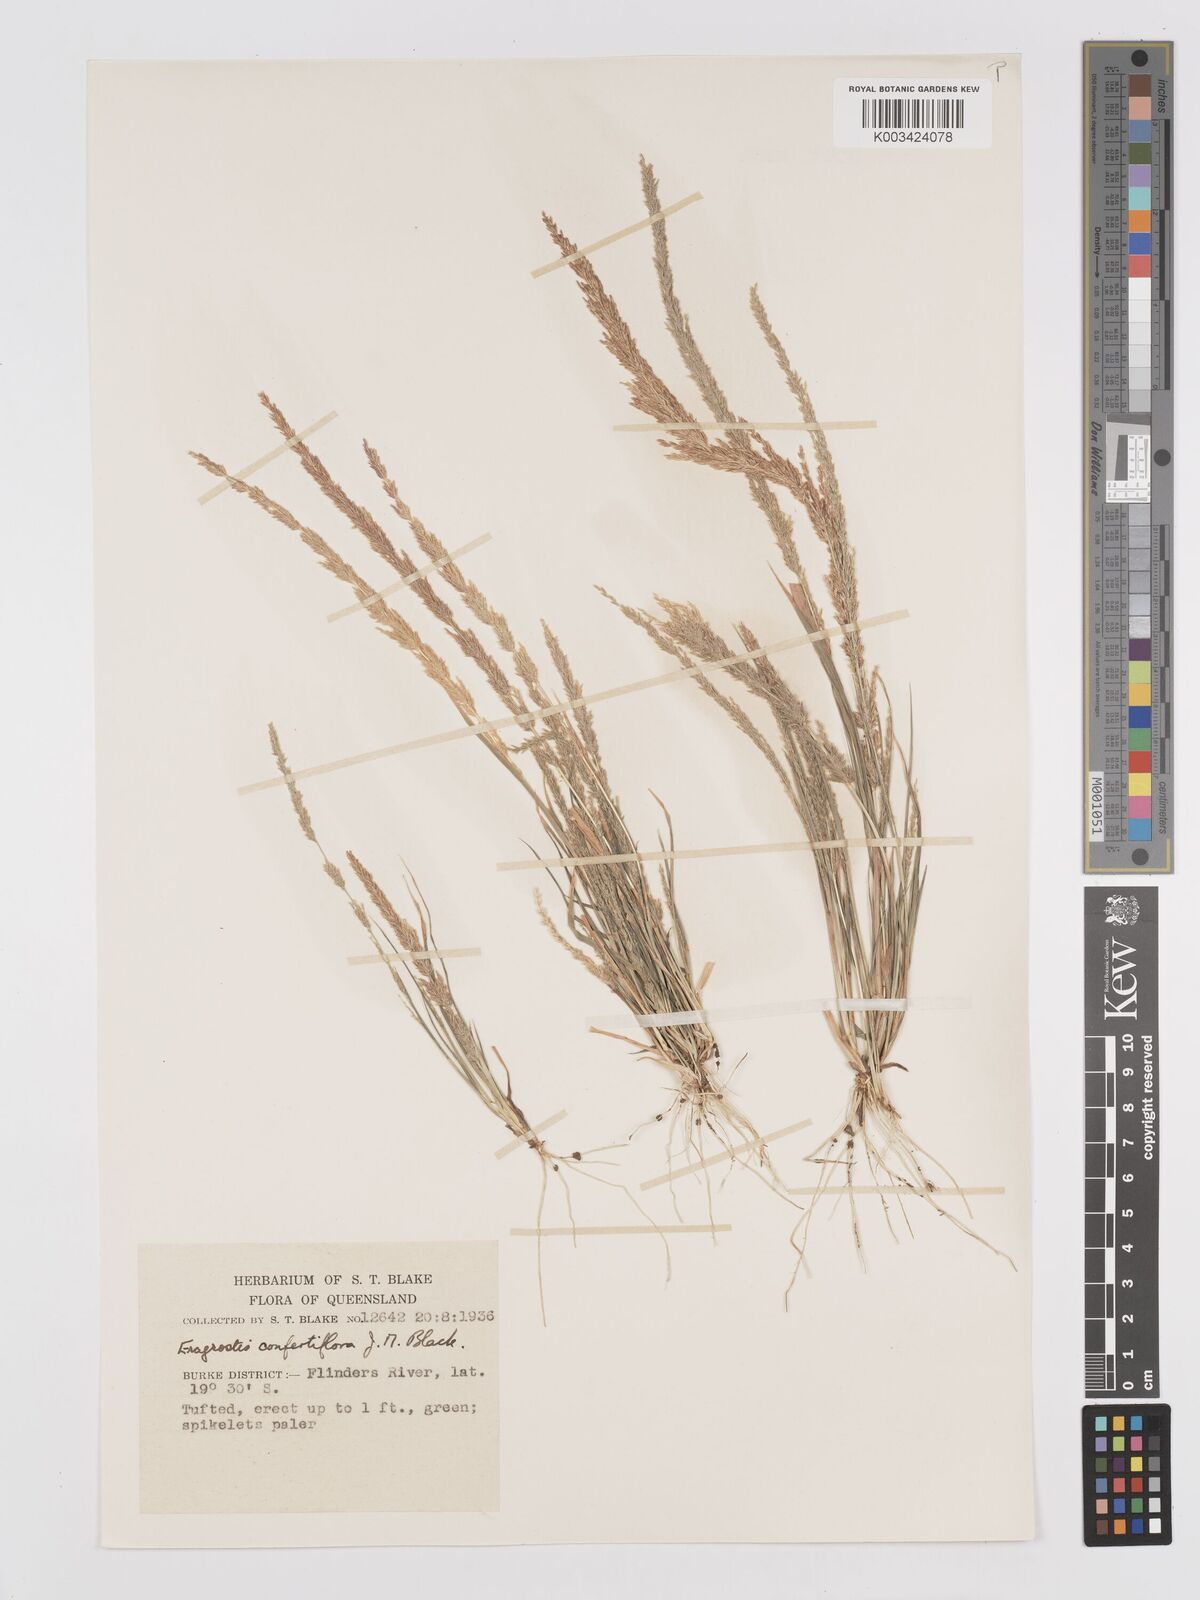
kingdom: Plantae
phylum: Tracheophyta
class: Liliopsida
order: Poales
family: Poaceae
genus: Eragrostis
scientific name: Eragrostis confertiflora
